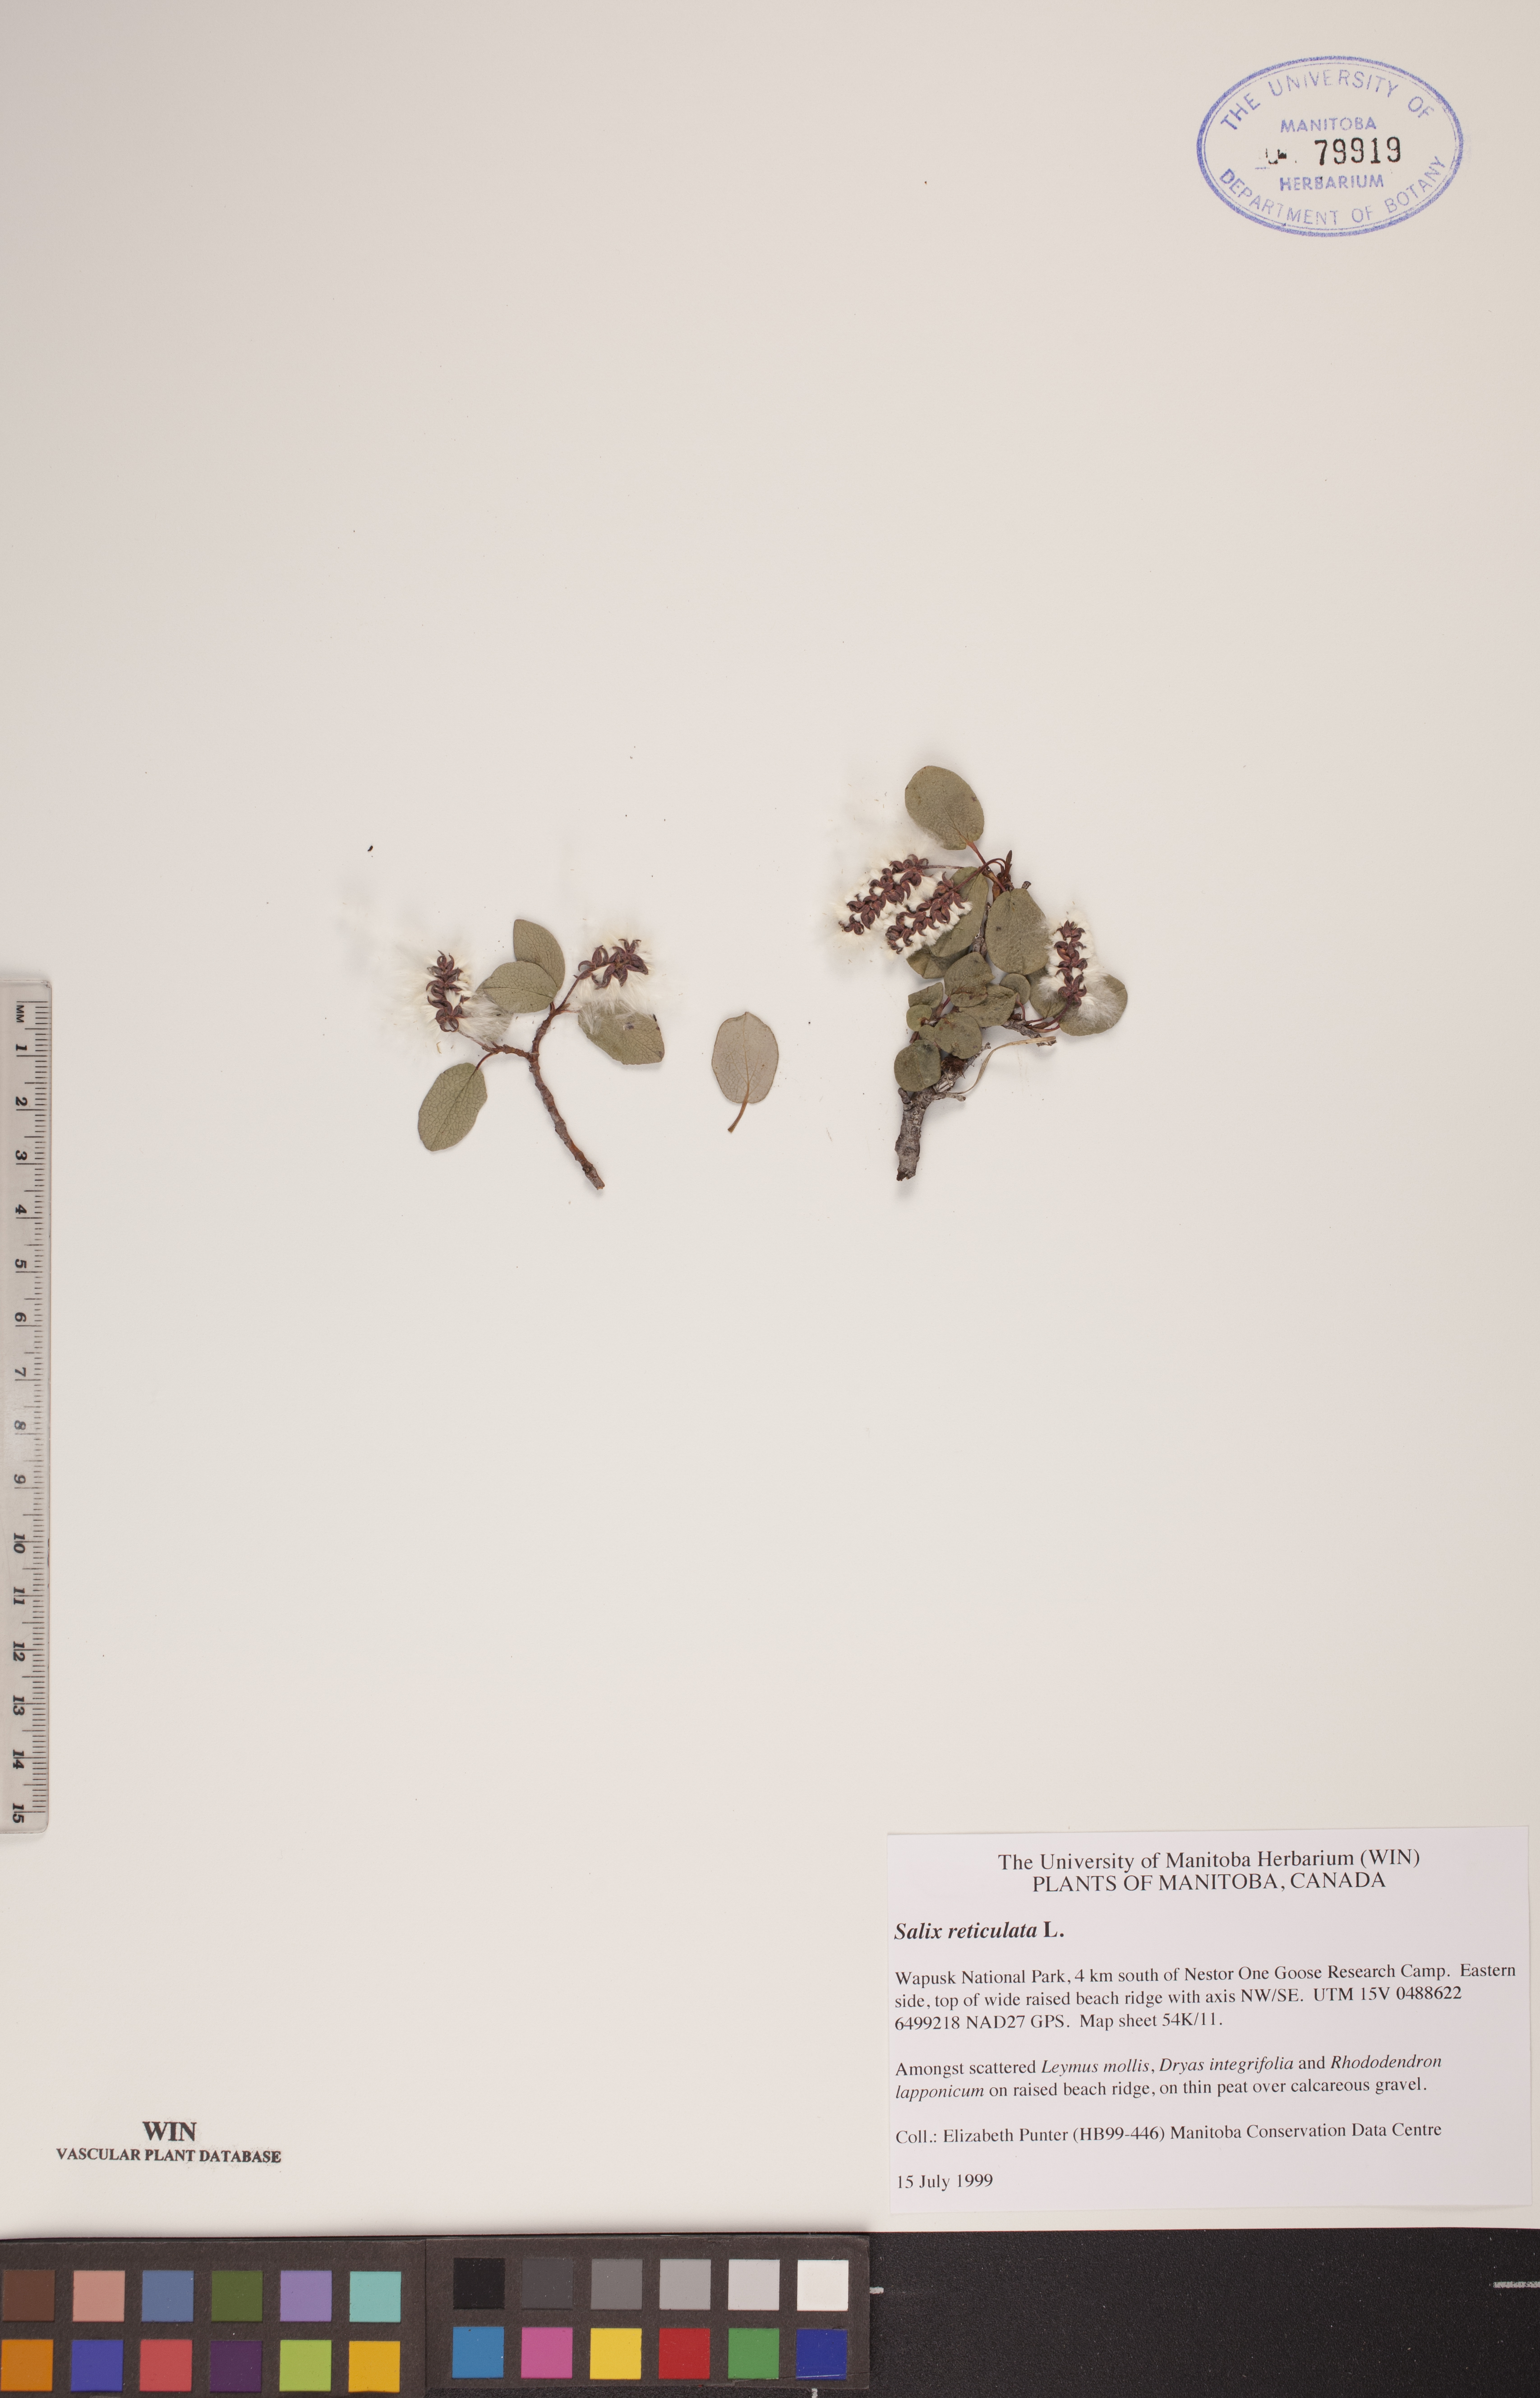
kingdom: Plantae
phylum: Tracheophyta
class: Magnoliopsida
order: Malpighiales
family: Salicaceae
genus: Salix
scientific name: Salix reticulata
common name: Net-leaved willow
